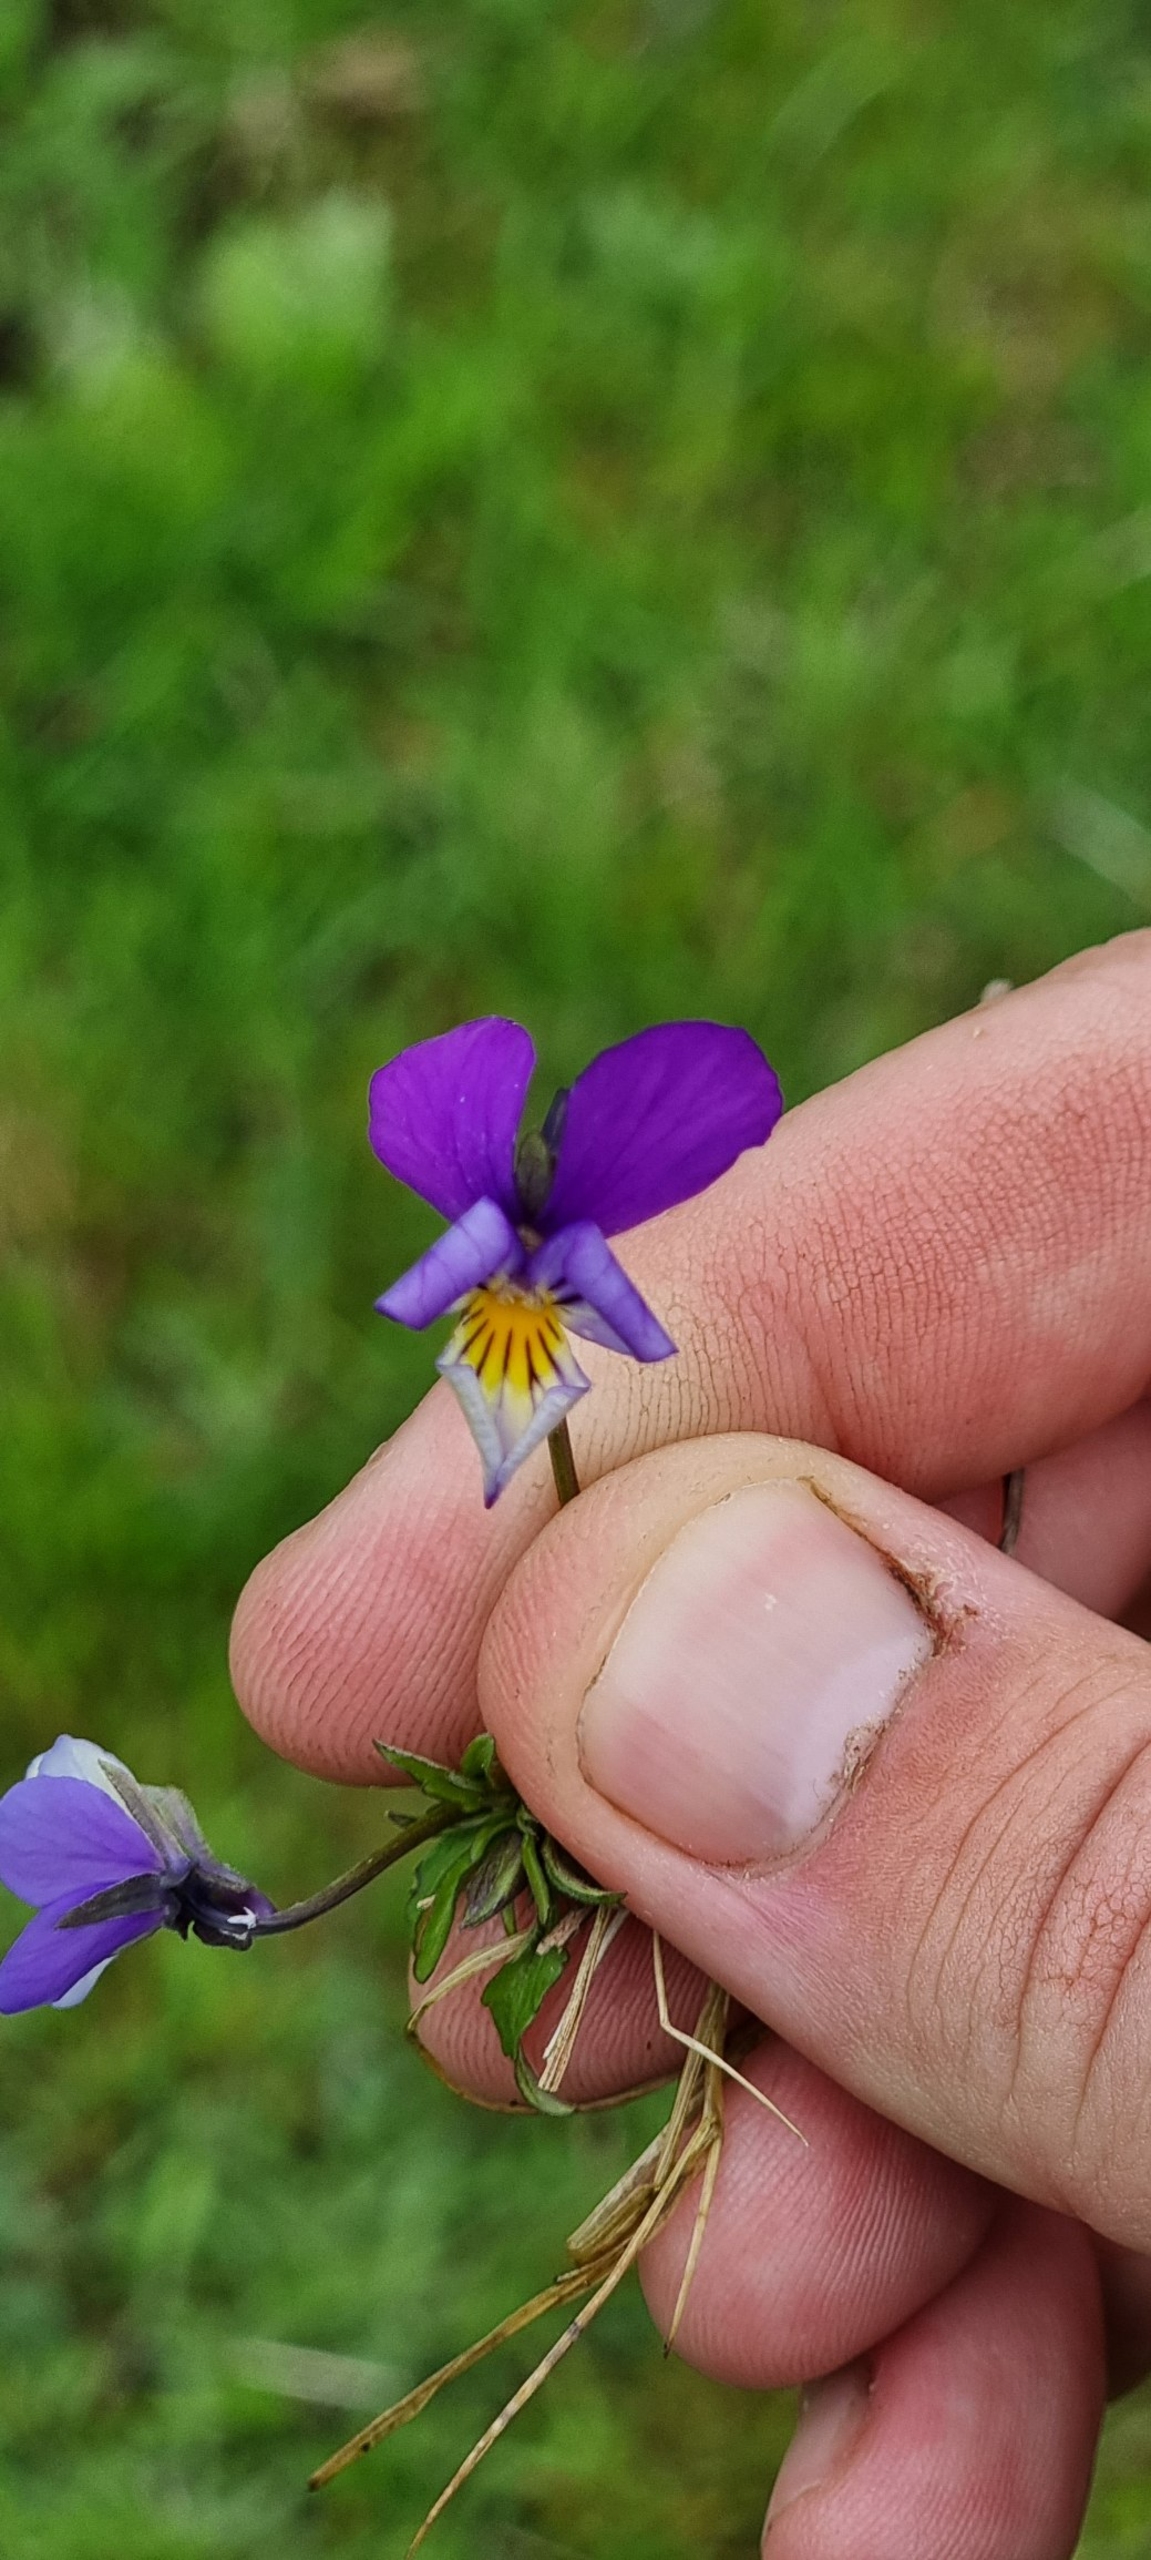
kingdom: Plantae
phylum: Tracheophyta
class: Magnoliopsida
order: Malpighiales
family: Violaceae
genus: Viola
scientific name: Viola tricolor
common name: Stedmoderblomst
